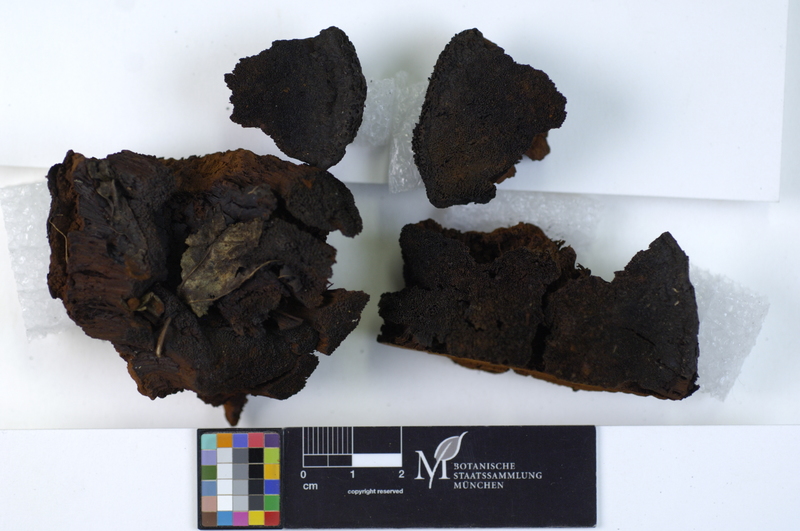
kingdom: Plantae
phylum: Tracheophyta
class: Magnoliopsida
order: Lamiales
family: Oleaceae
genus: Fraxinus
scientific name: Fraxinus
